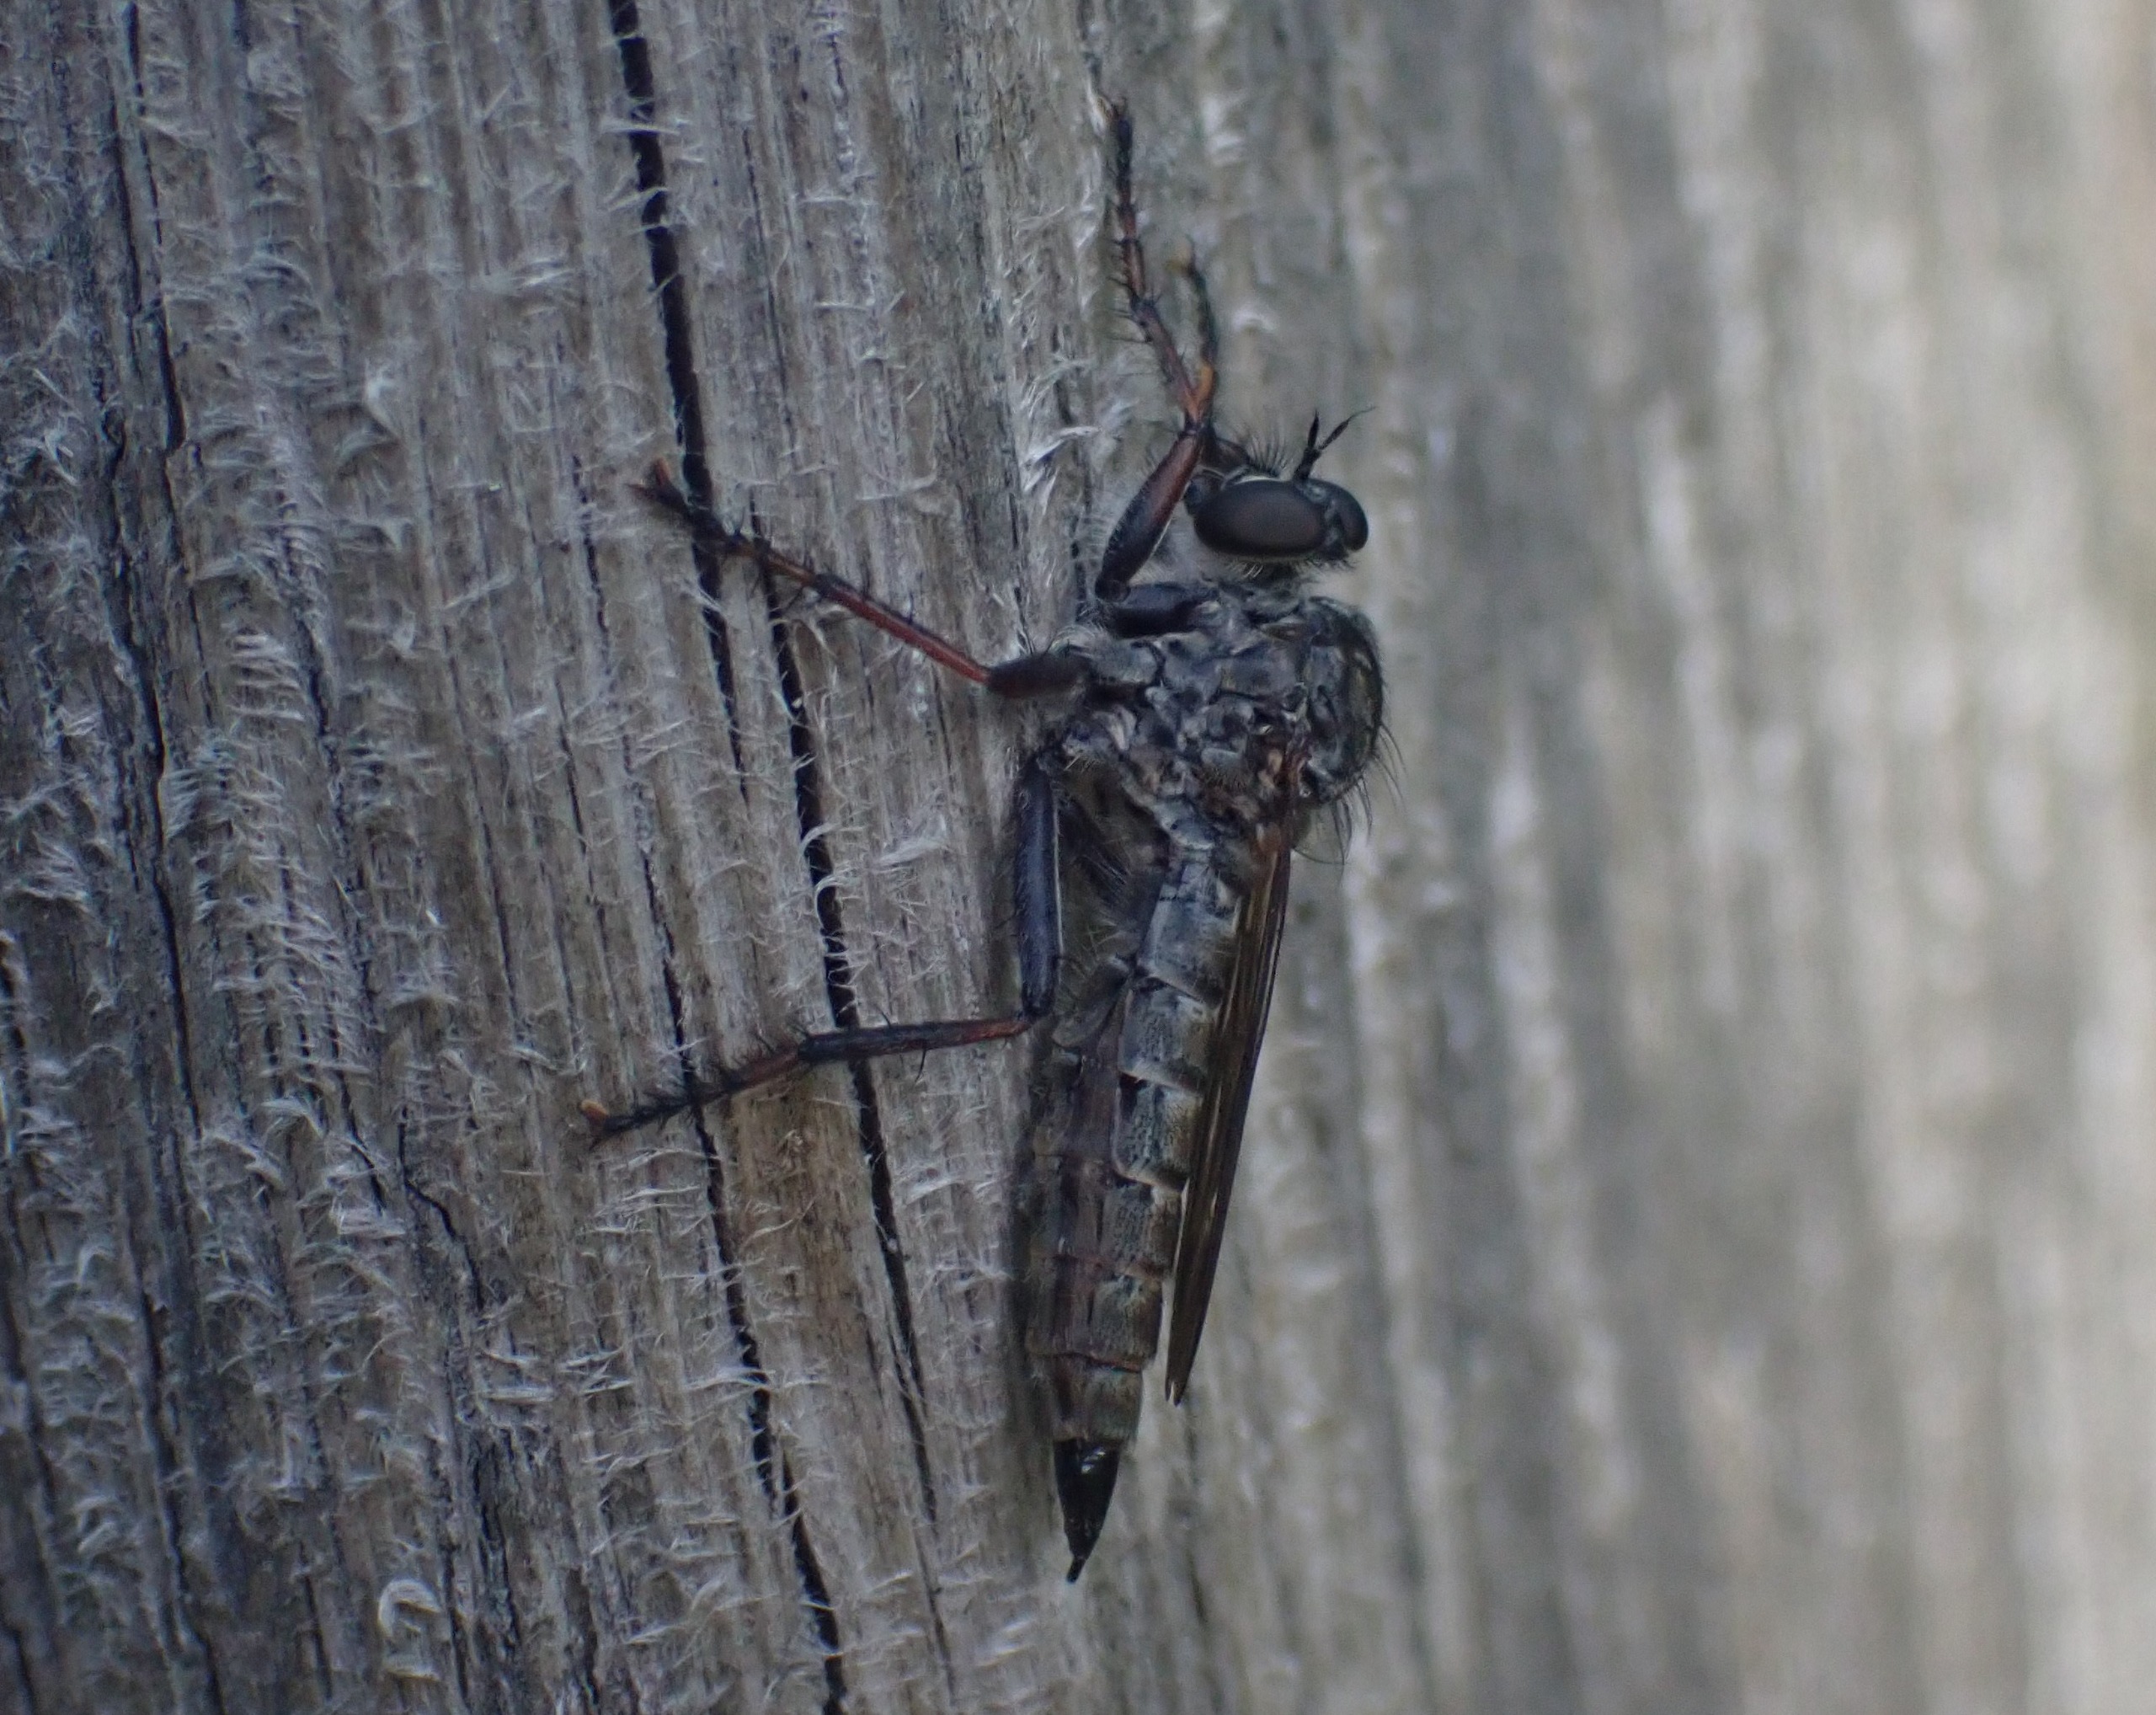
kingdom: Animalia
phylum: Arthropoda
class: Insecta
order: Diptera
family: Asilidae
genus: Machimus
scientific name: Machimus atricapillus
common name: Sort hårrovflue
